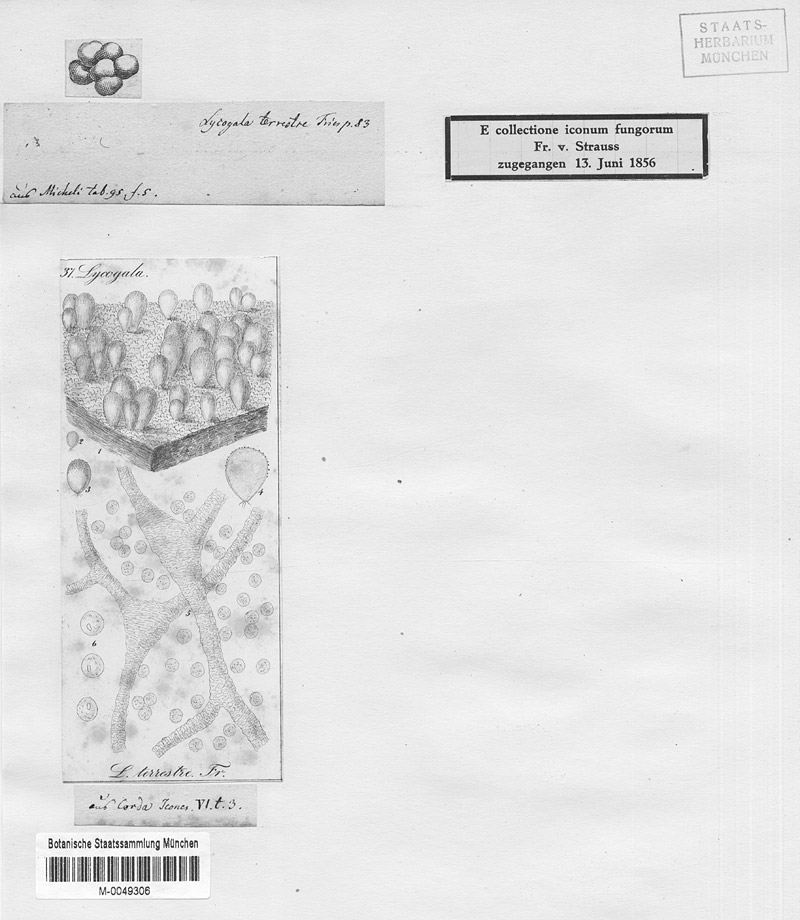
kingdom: Protozoa
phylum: Mycetozoa
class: Myxomycetes
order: Cribrariales
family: Tubiferaceae
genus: Lycogala
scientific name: Lycogala epidendrum
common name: Wolf's milk
